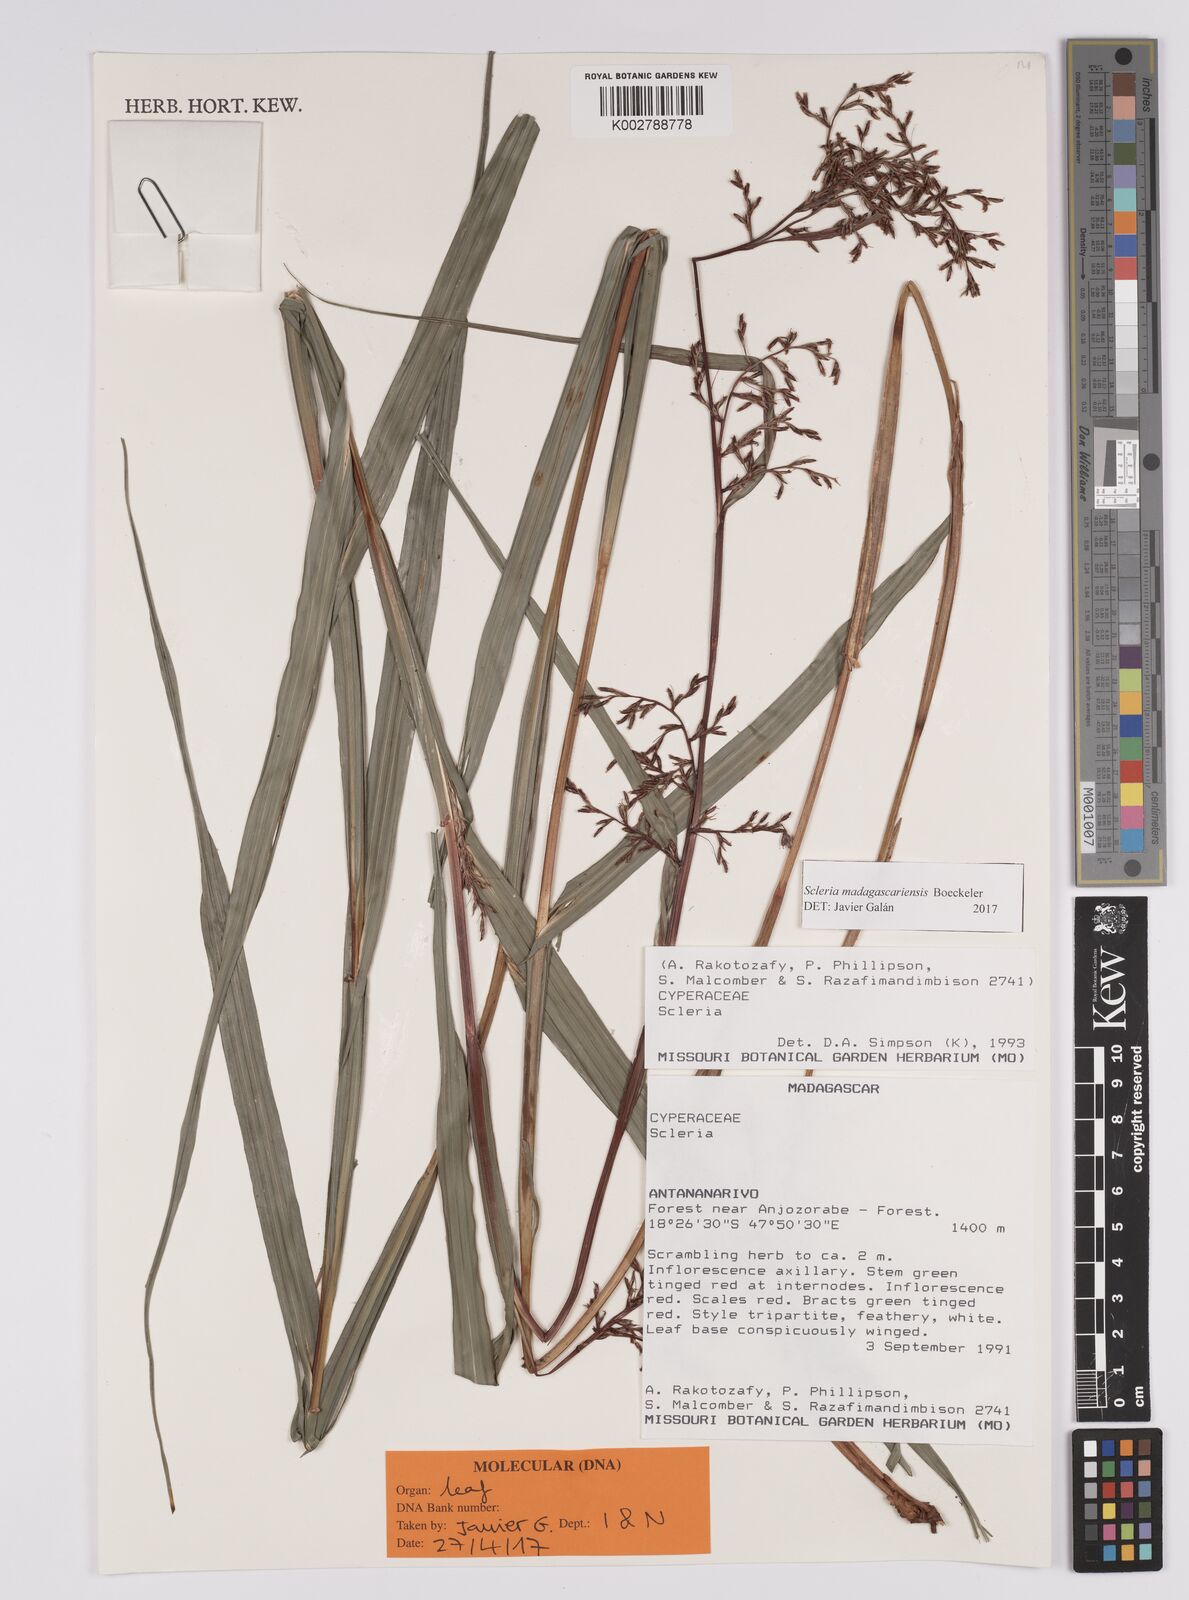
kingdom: Plantae
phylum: Tracheophyta
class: Liliopsida
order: Poales
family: Cyperaceae
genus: Scleria
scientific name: Scleria madagascariensis
